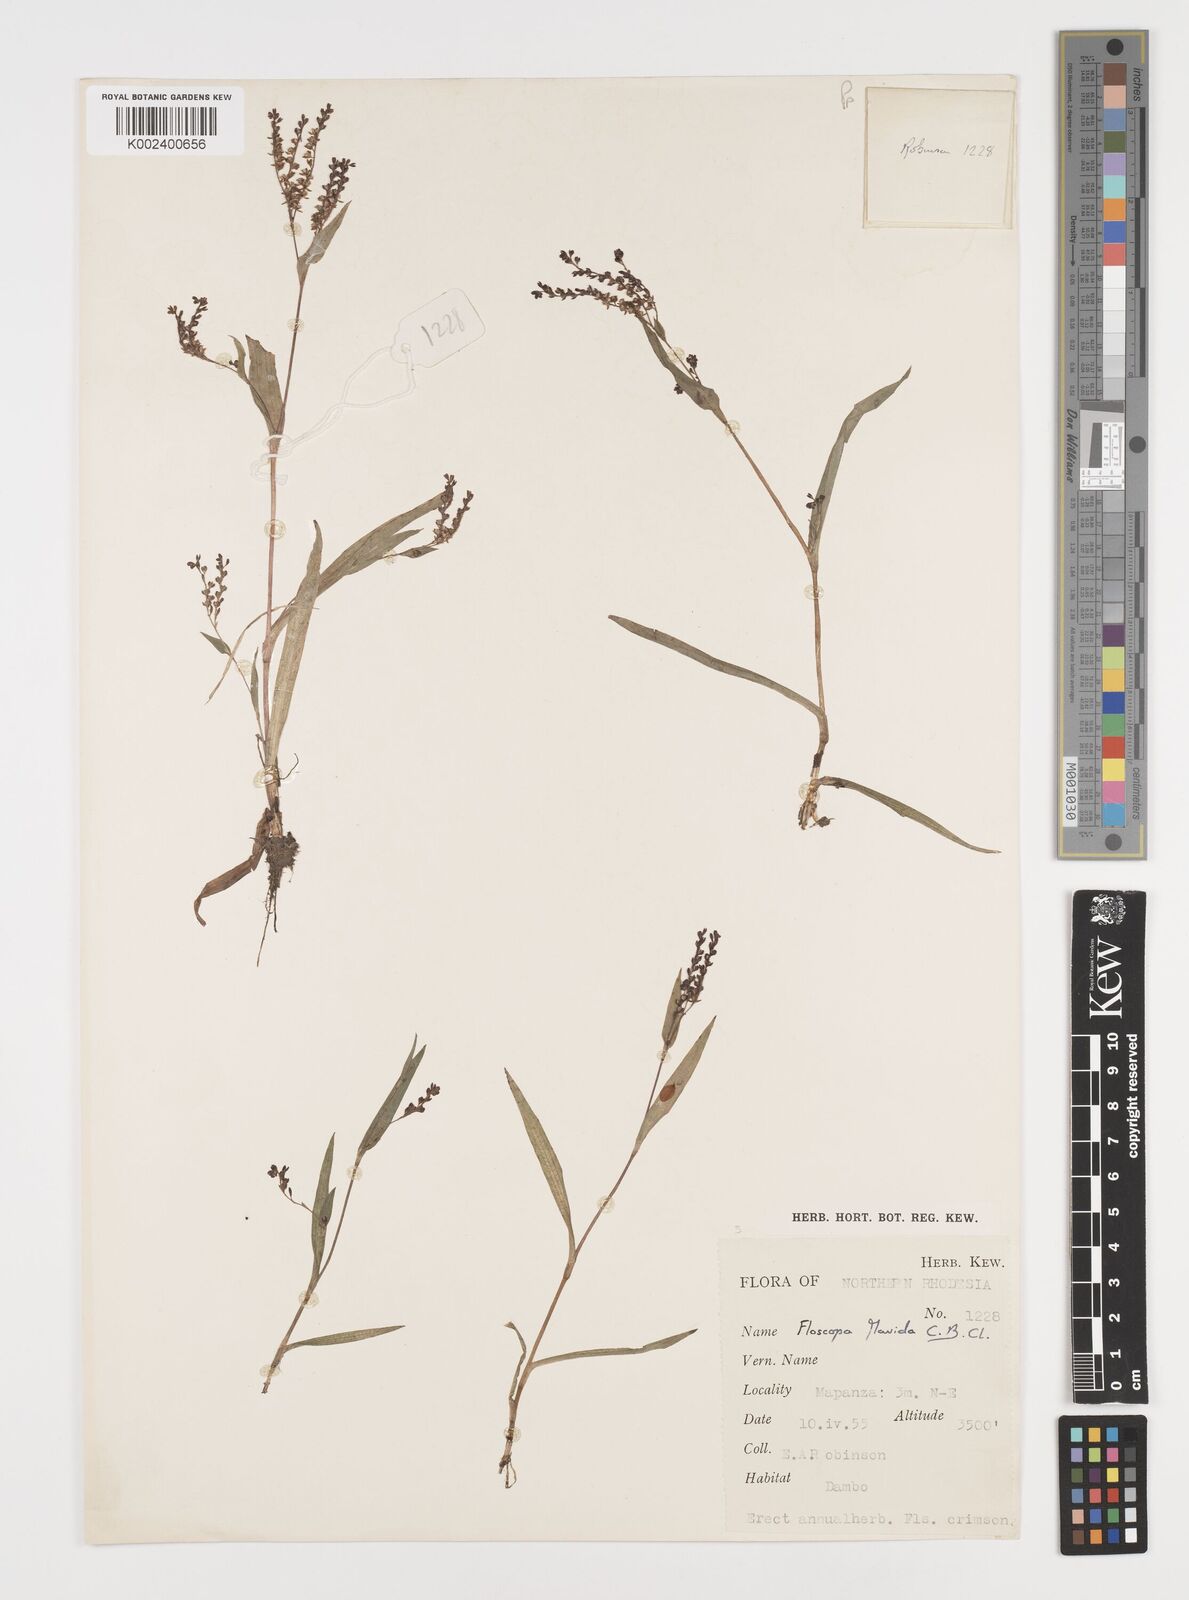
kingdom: Plantae
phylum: Tracheophyta
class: Liliopsida
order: Commelinales
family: Commelinaceae
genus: Floscopa
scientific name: Floscopa flavida
